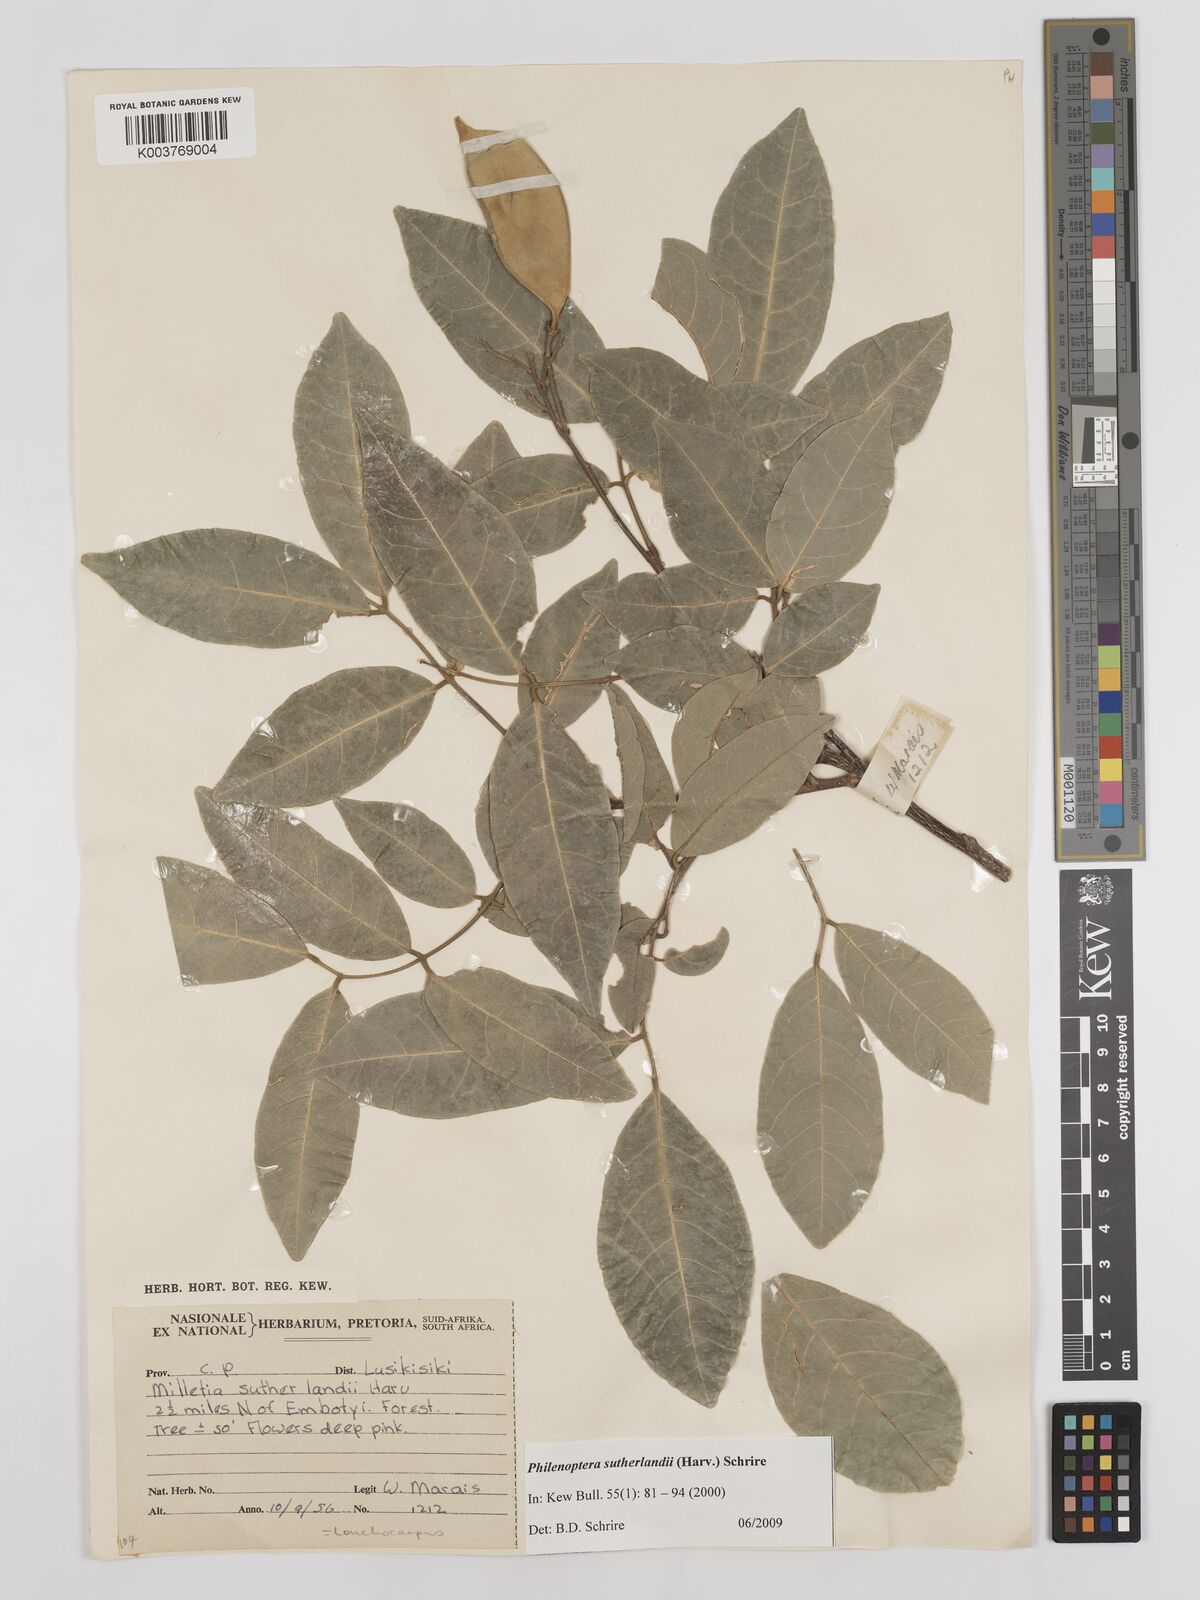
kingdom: Plantae
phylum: Tracheophyta
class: Magnoliopsida
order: Fabales
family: Fabaceae
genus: Philenoptera
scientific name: Philenoptera sutherlandii
